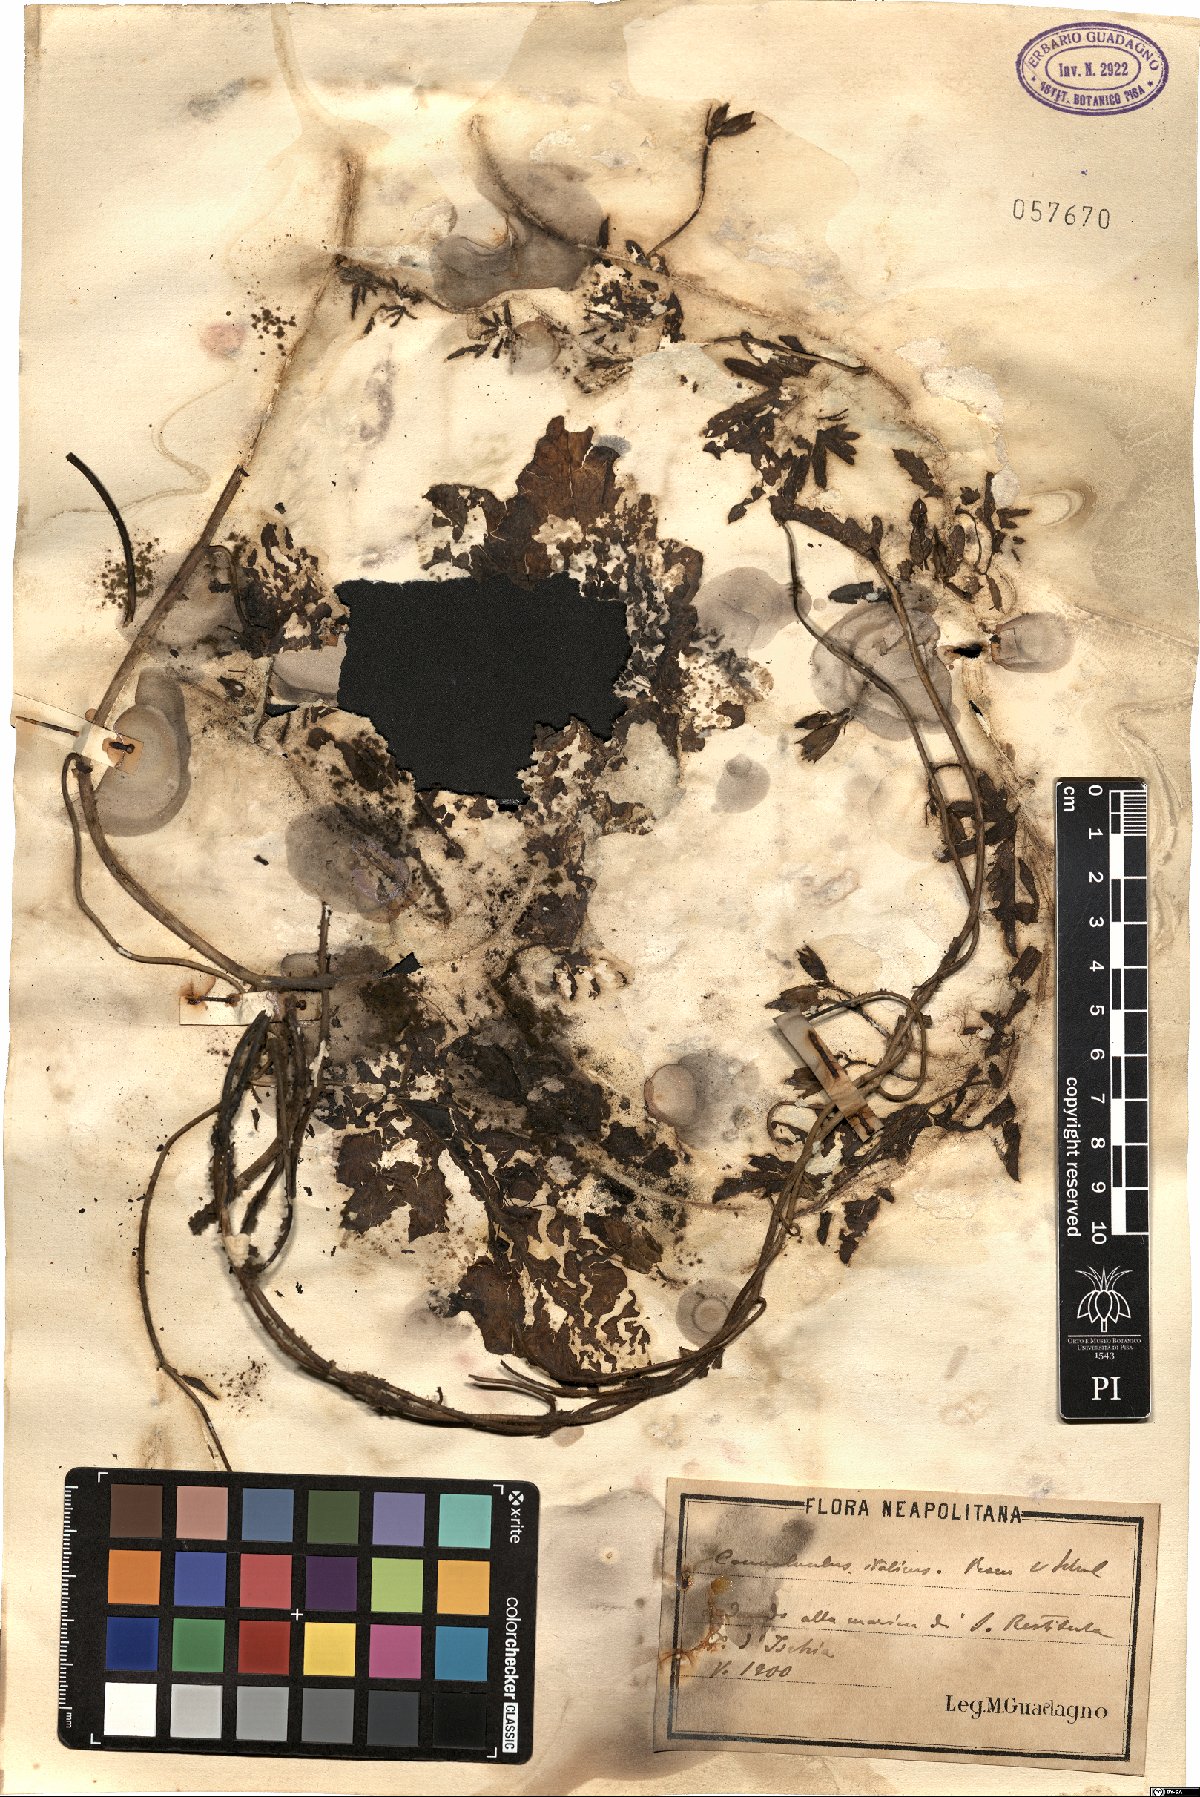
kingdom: Plantae
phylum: Tracheophyta
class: Magnoliopsida
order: Solanales
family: Convolvulaceae
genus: Convolvulus
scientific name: Convolvulus althaeoides
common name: Mallow bindweed
